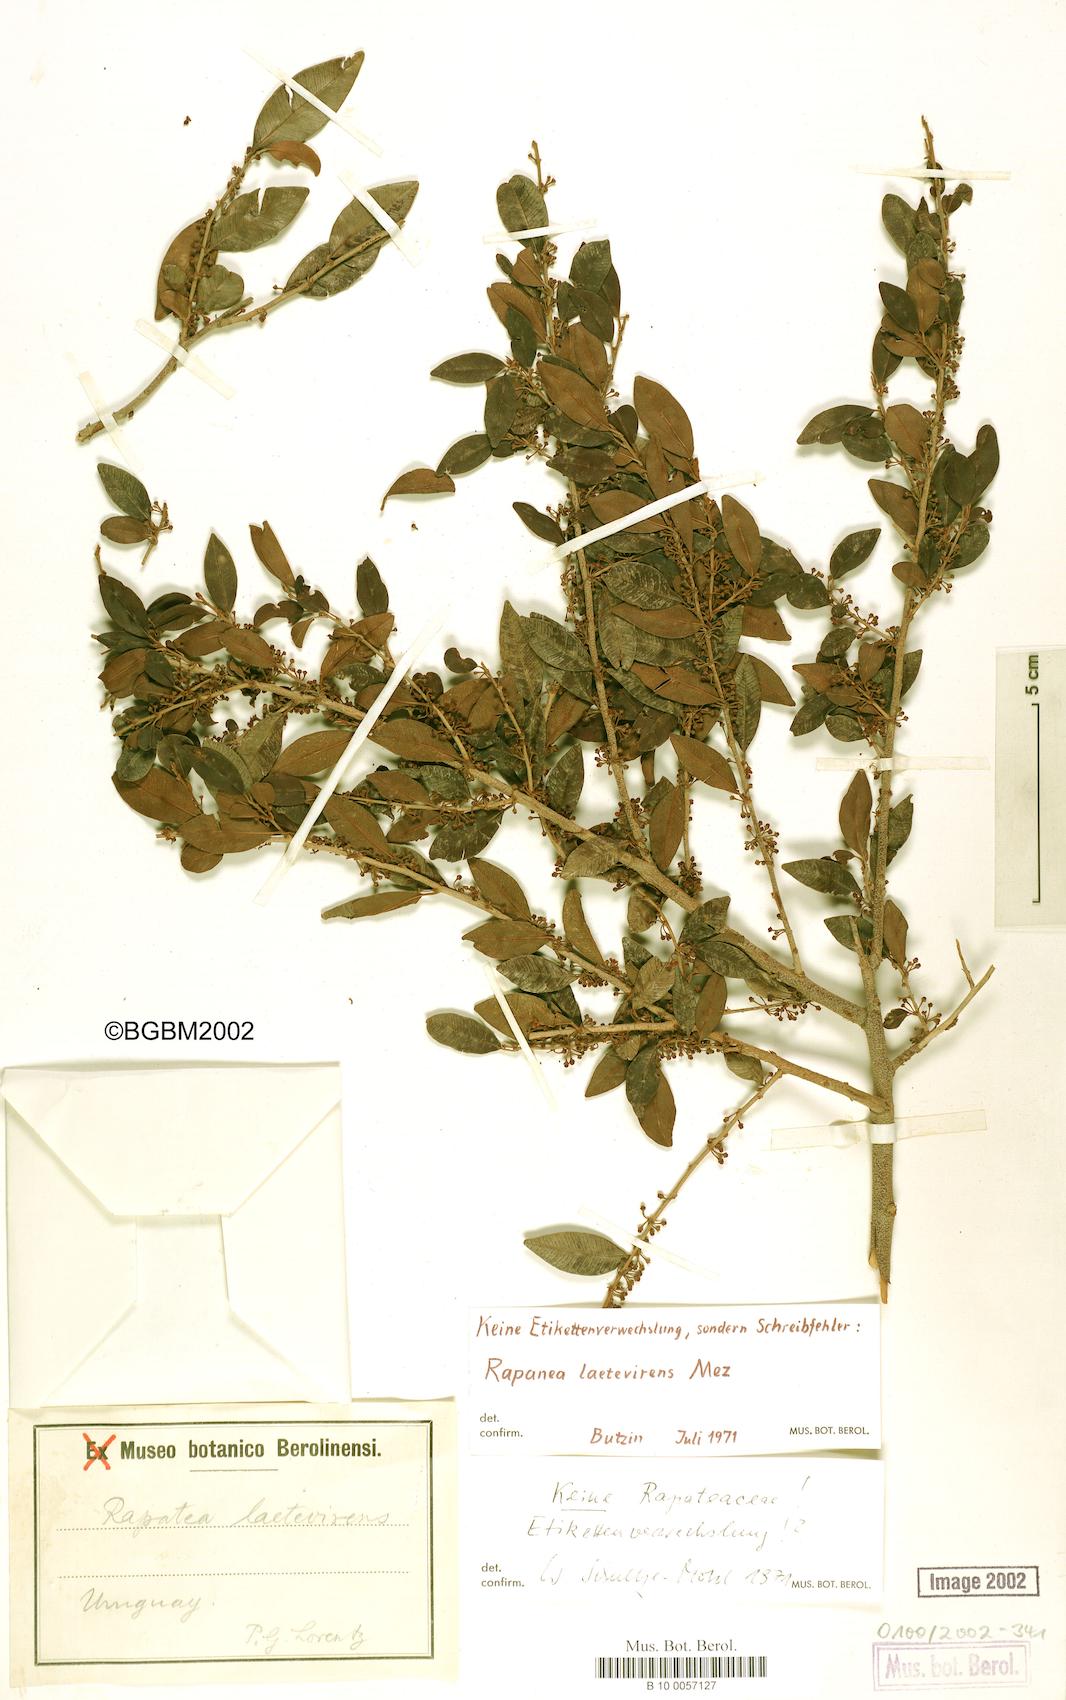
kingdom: Plantae
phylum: Tracheophyta
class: Magnoliopsida
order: Ericales
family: Primulaceae
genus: Myrsine
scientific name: Myrsine laetevirens
